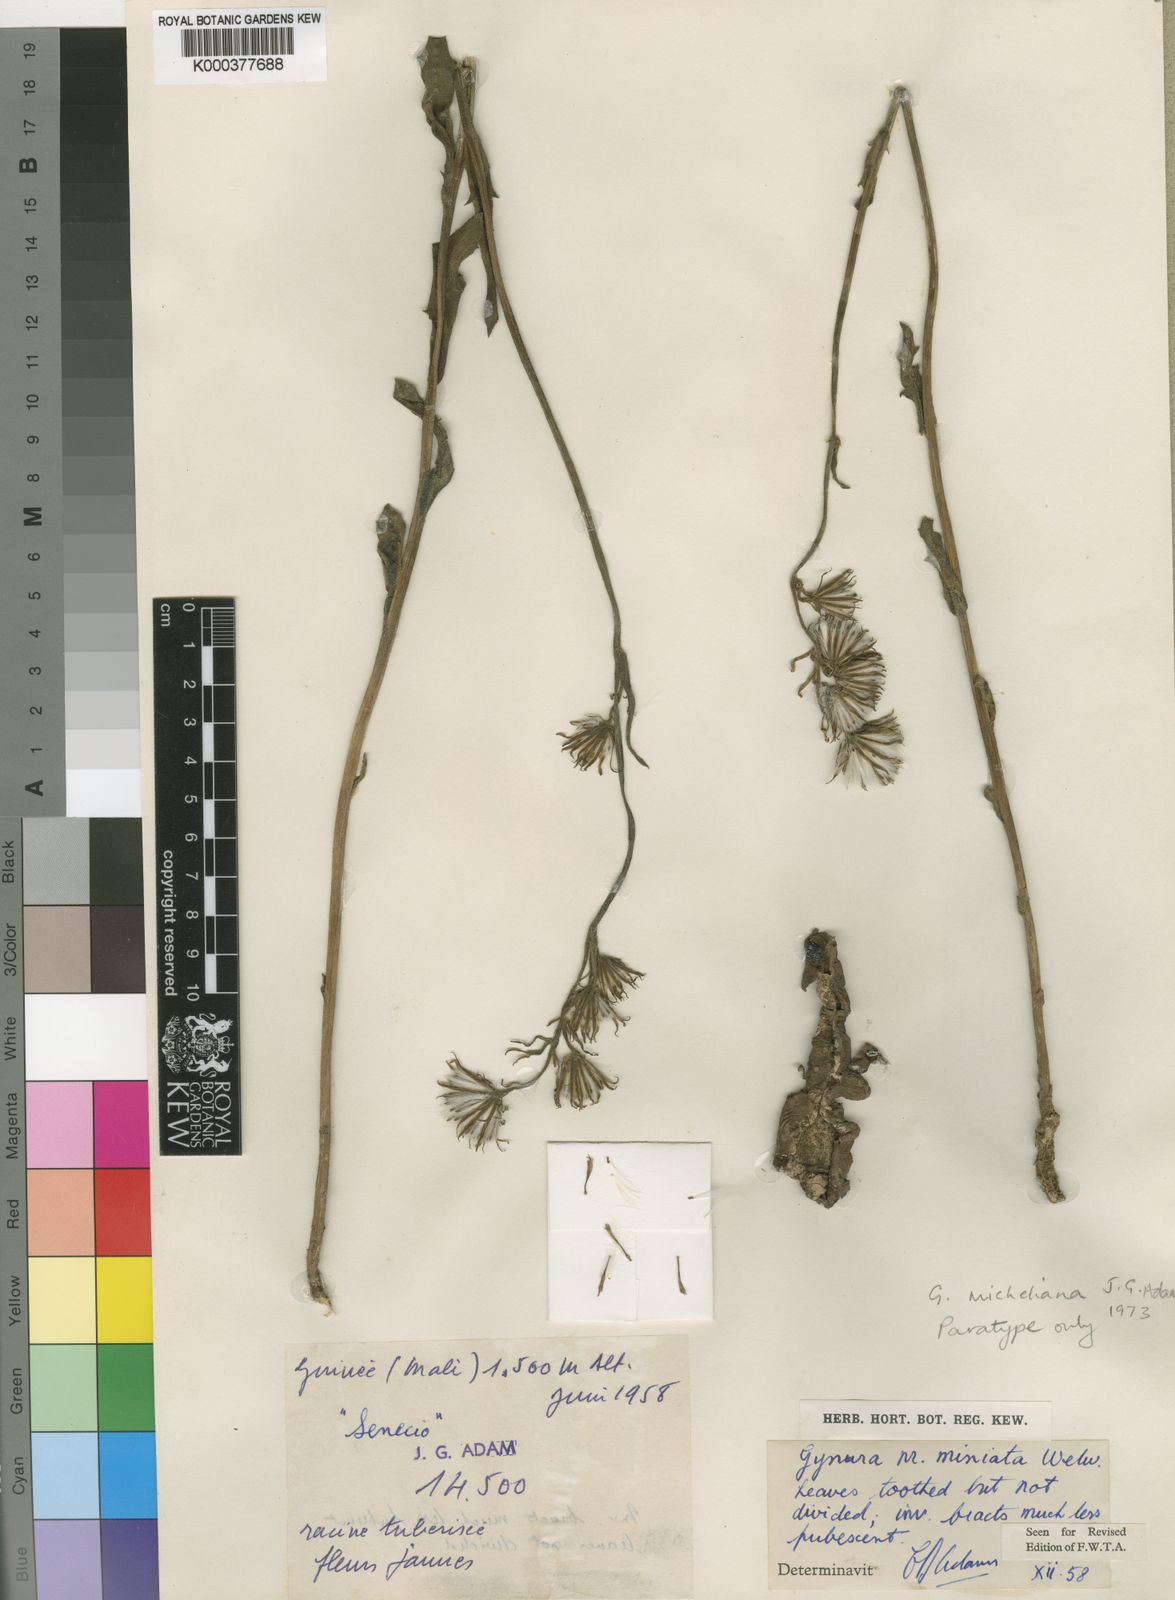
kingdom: Plantae
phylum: Tracheophyta
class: Magnoliopsida
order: Asterales
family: Asteraceae
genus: Gynura
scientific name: Gynura micheliana
